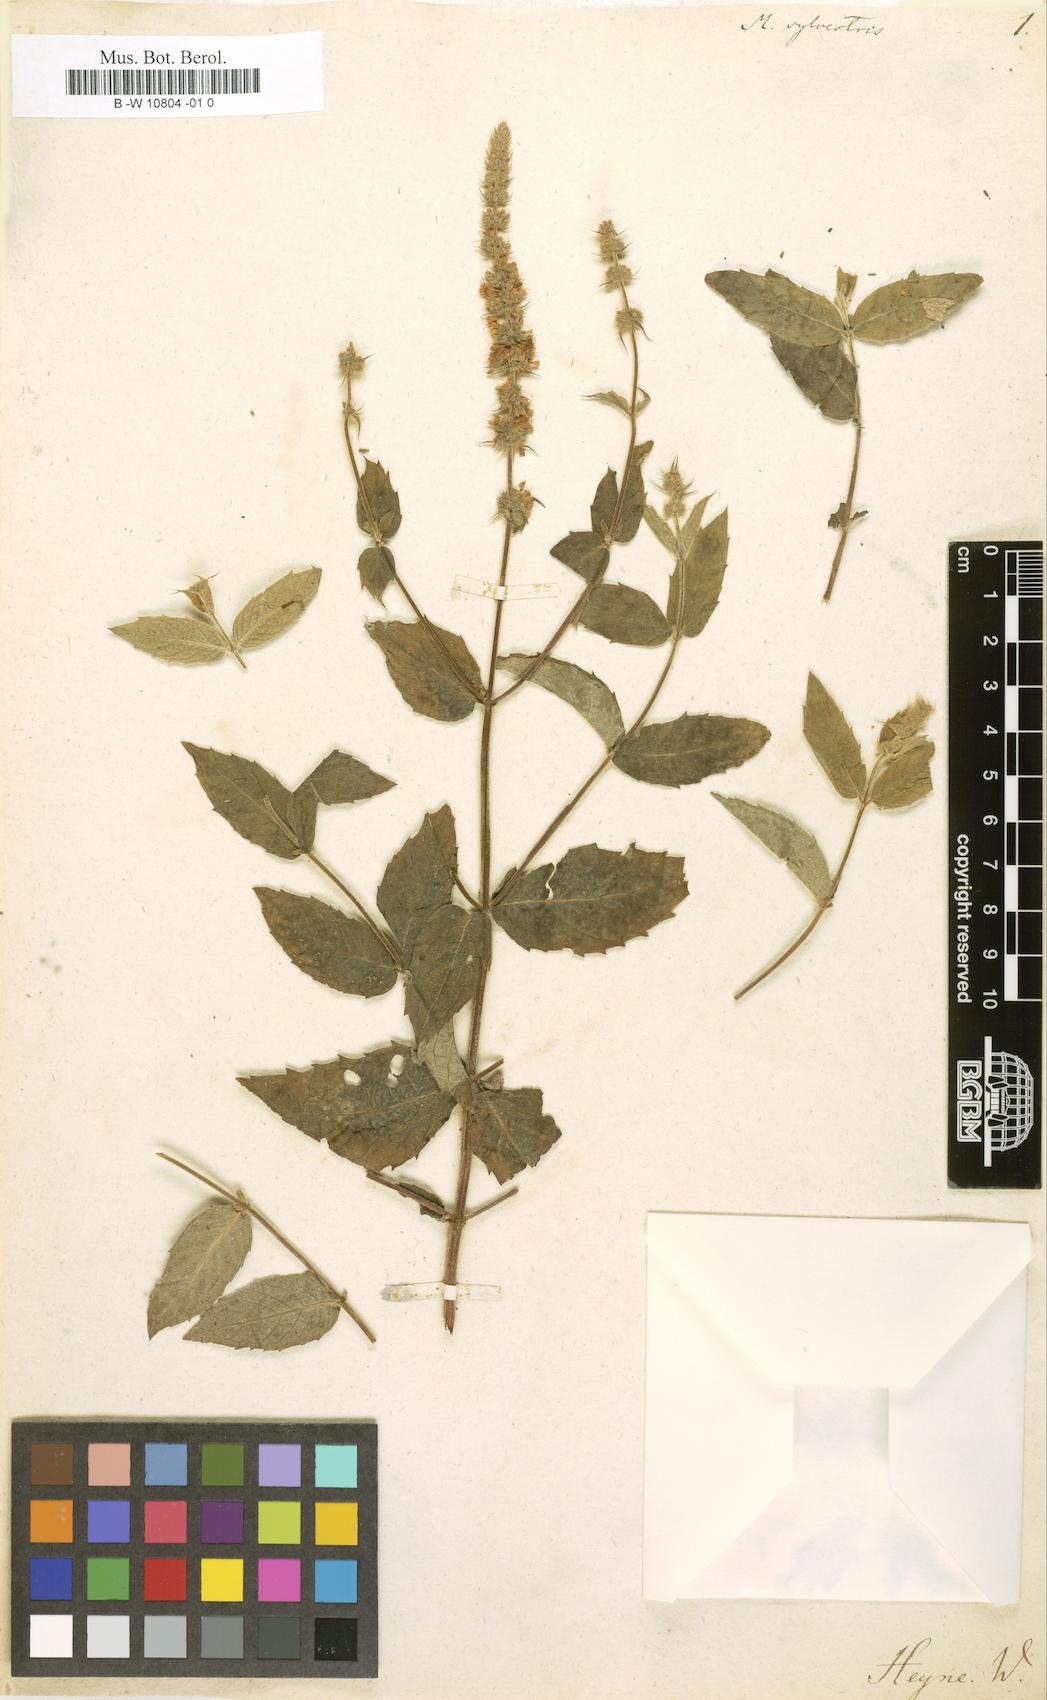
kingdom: Plantae
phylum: Tracheophyta
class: Magnoliopsida
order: Lamiales
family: Lamiaceae
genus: Mentha
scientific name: Mentha
